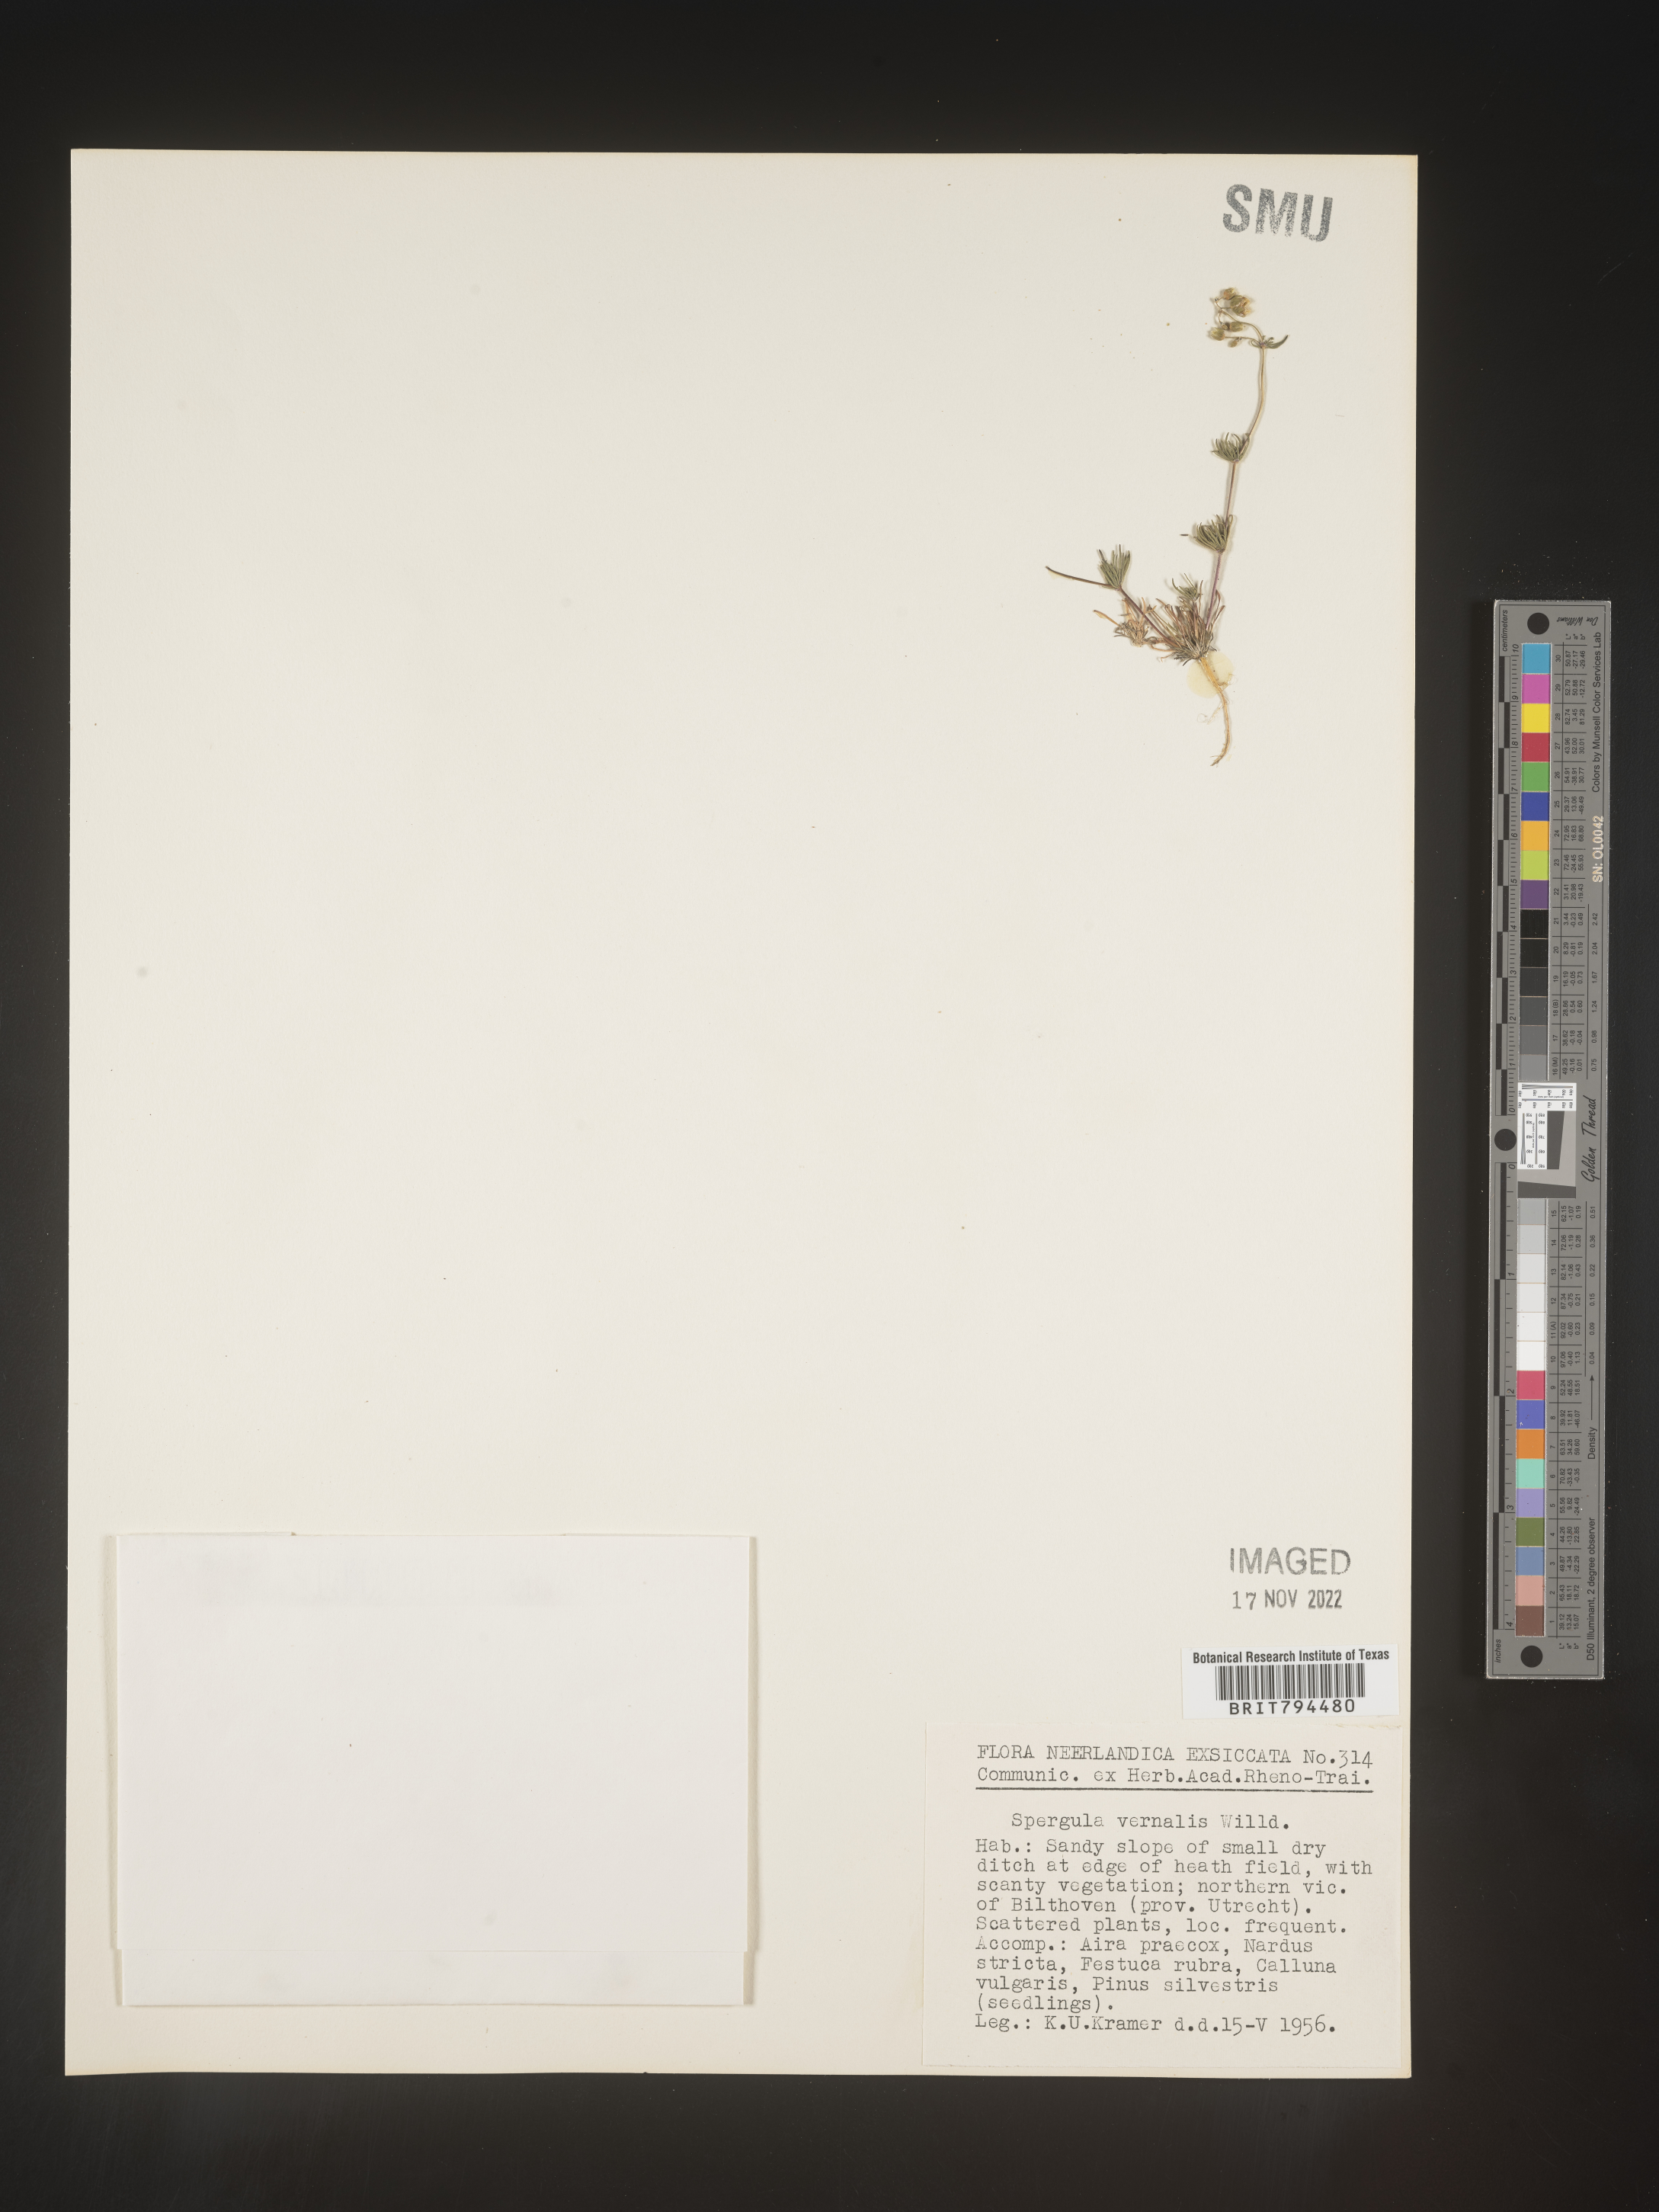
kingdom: Plantae
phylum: Tracheophyta
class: Magnoliopsida
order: Caryophyllales
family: Caryophyllaceae
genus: Spergula
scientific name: Spergula pentandra
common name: Wingstem spurry
